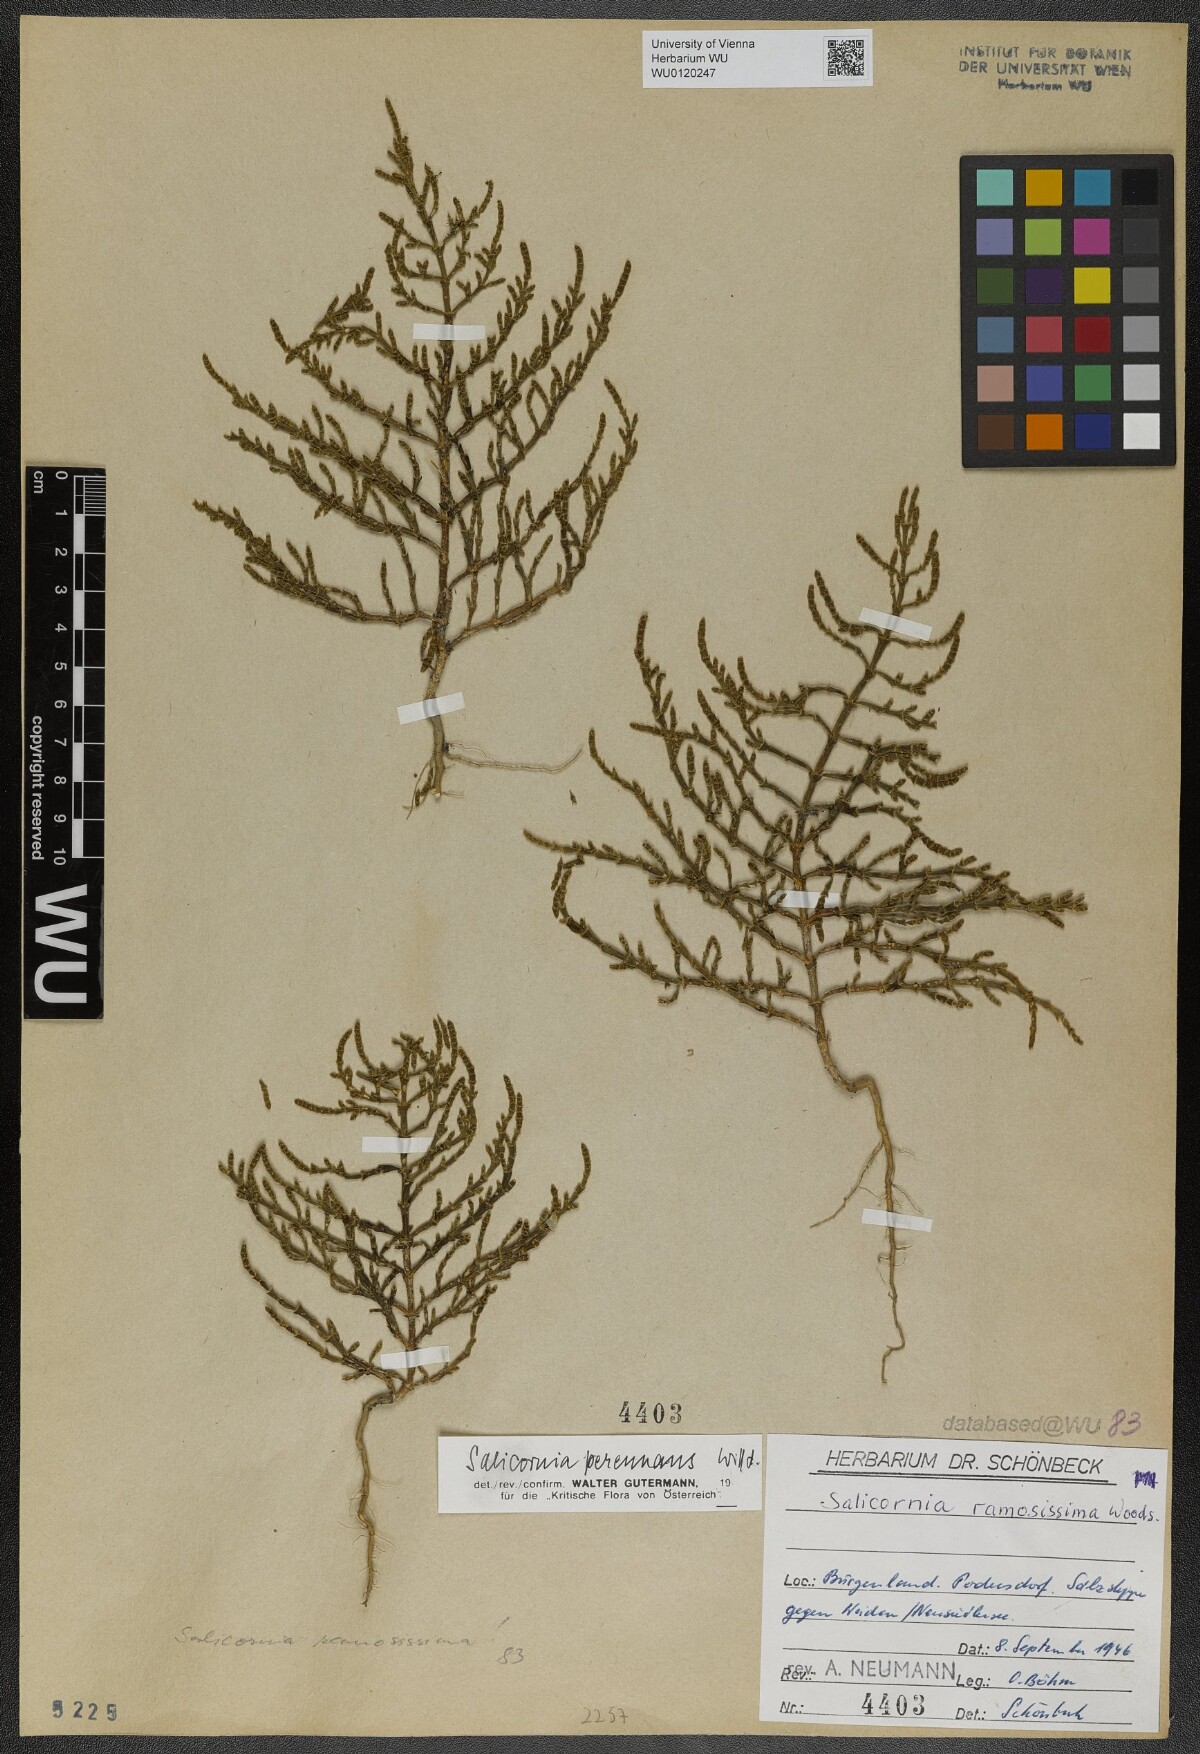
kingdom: Plantae
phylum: Tracheophyta
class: Magnoliopsida
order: Caryophyllales
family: Amaranthaceae
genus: Salicornia
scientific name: Salicornia perennans
